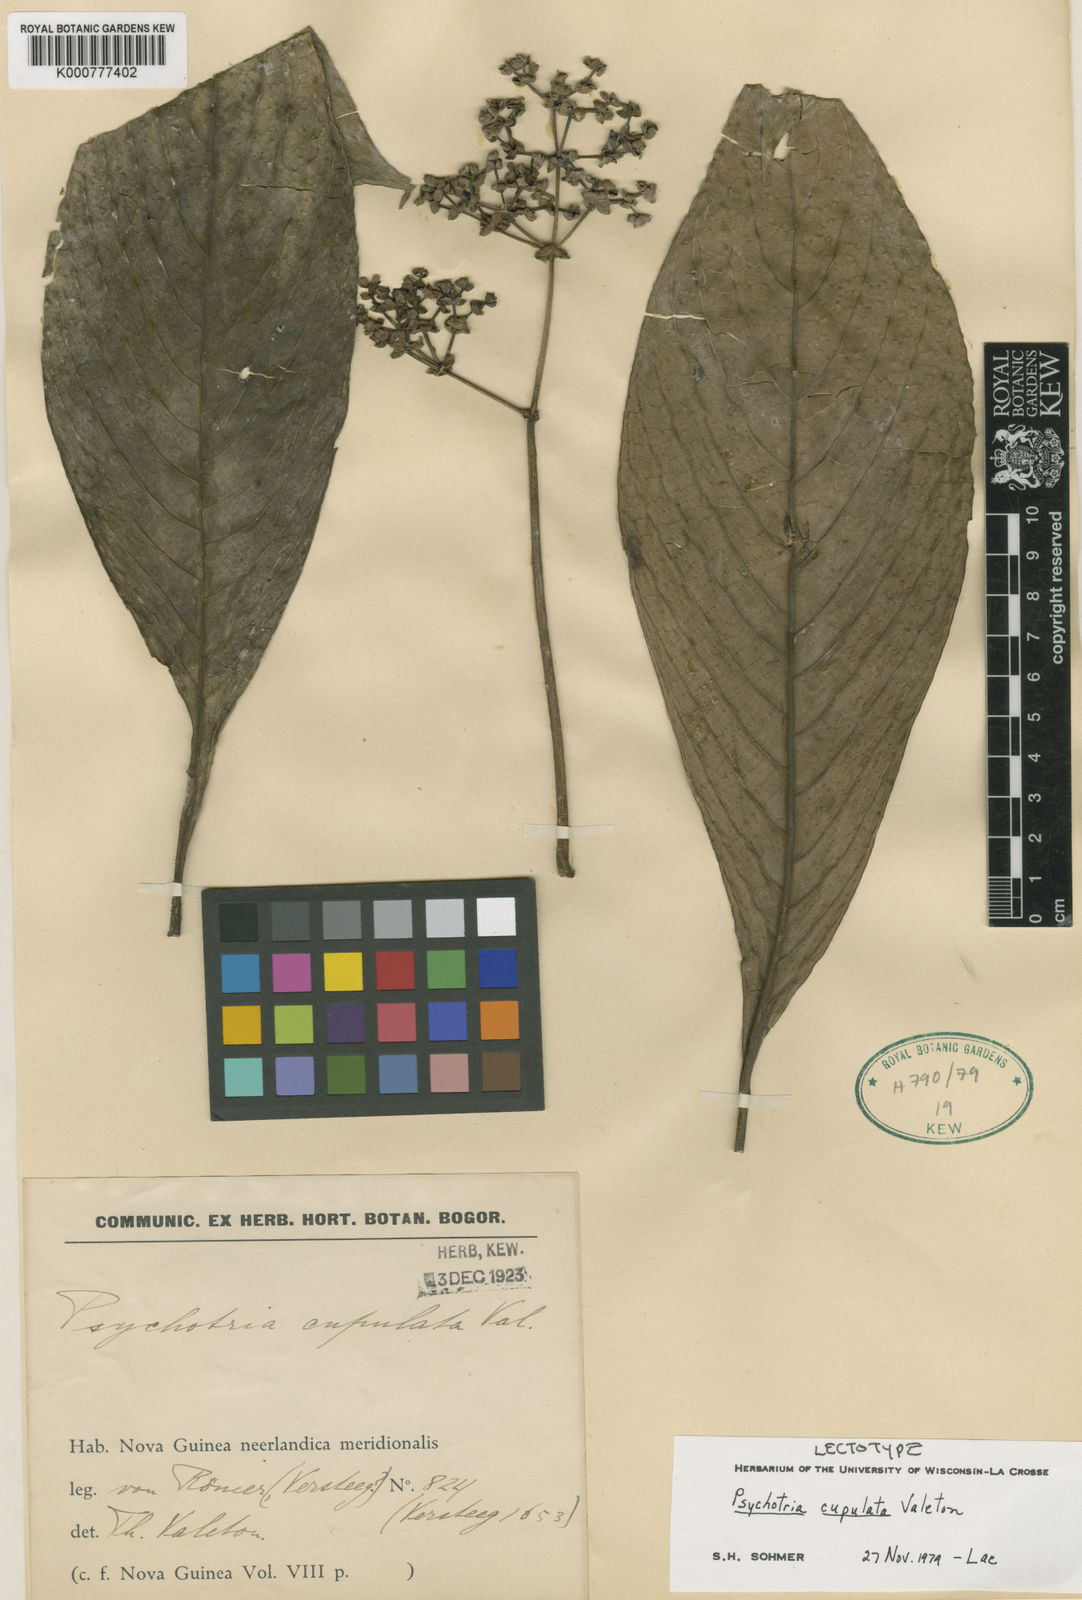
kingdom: Plantae
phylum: Tracheophyta
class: Magnoliopsida
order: Gentianales
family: Rubiaceae
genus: Psychotria
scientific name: Psychotria cupulata
